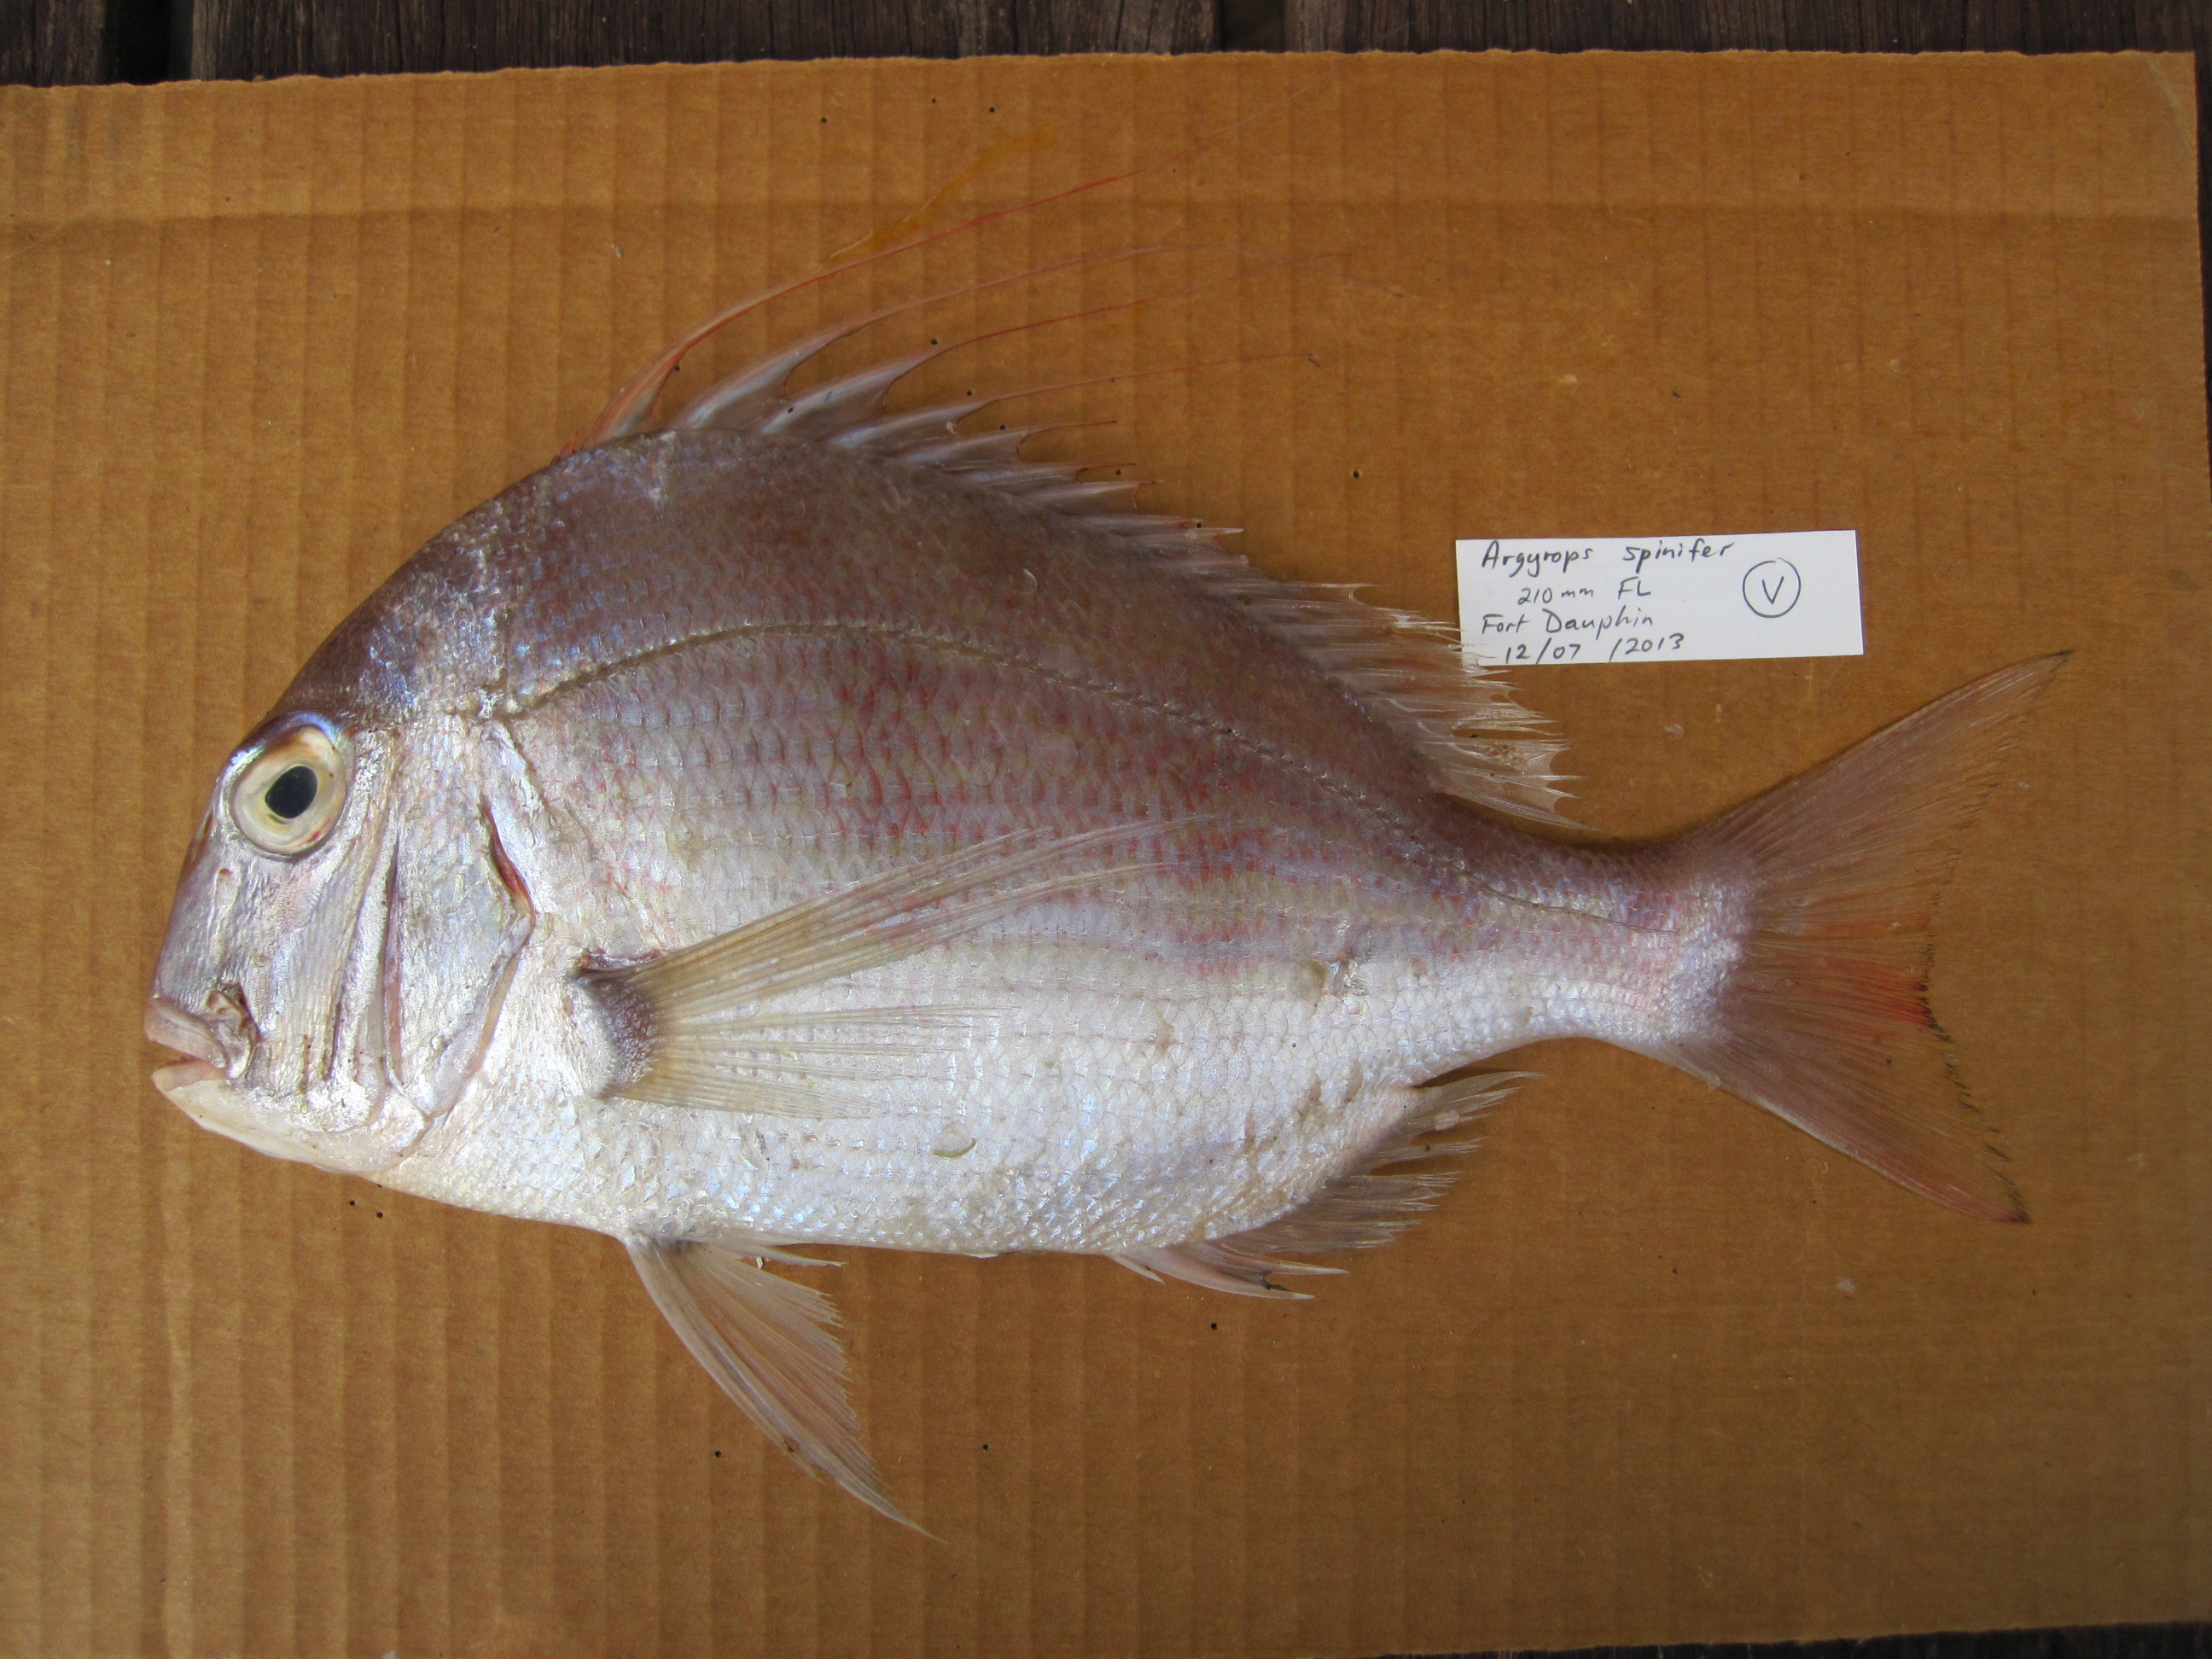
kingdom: Animalia
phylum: Chordata
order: Perciformes
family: Sparidae
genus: Argyrops
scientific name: Argyrops spinifer
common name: King soldier bream
